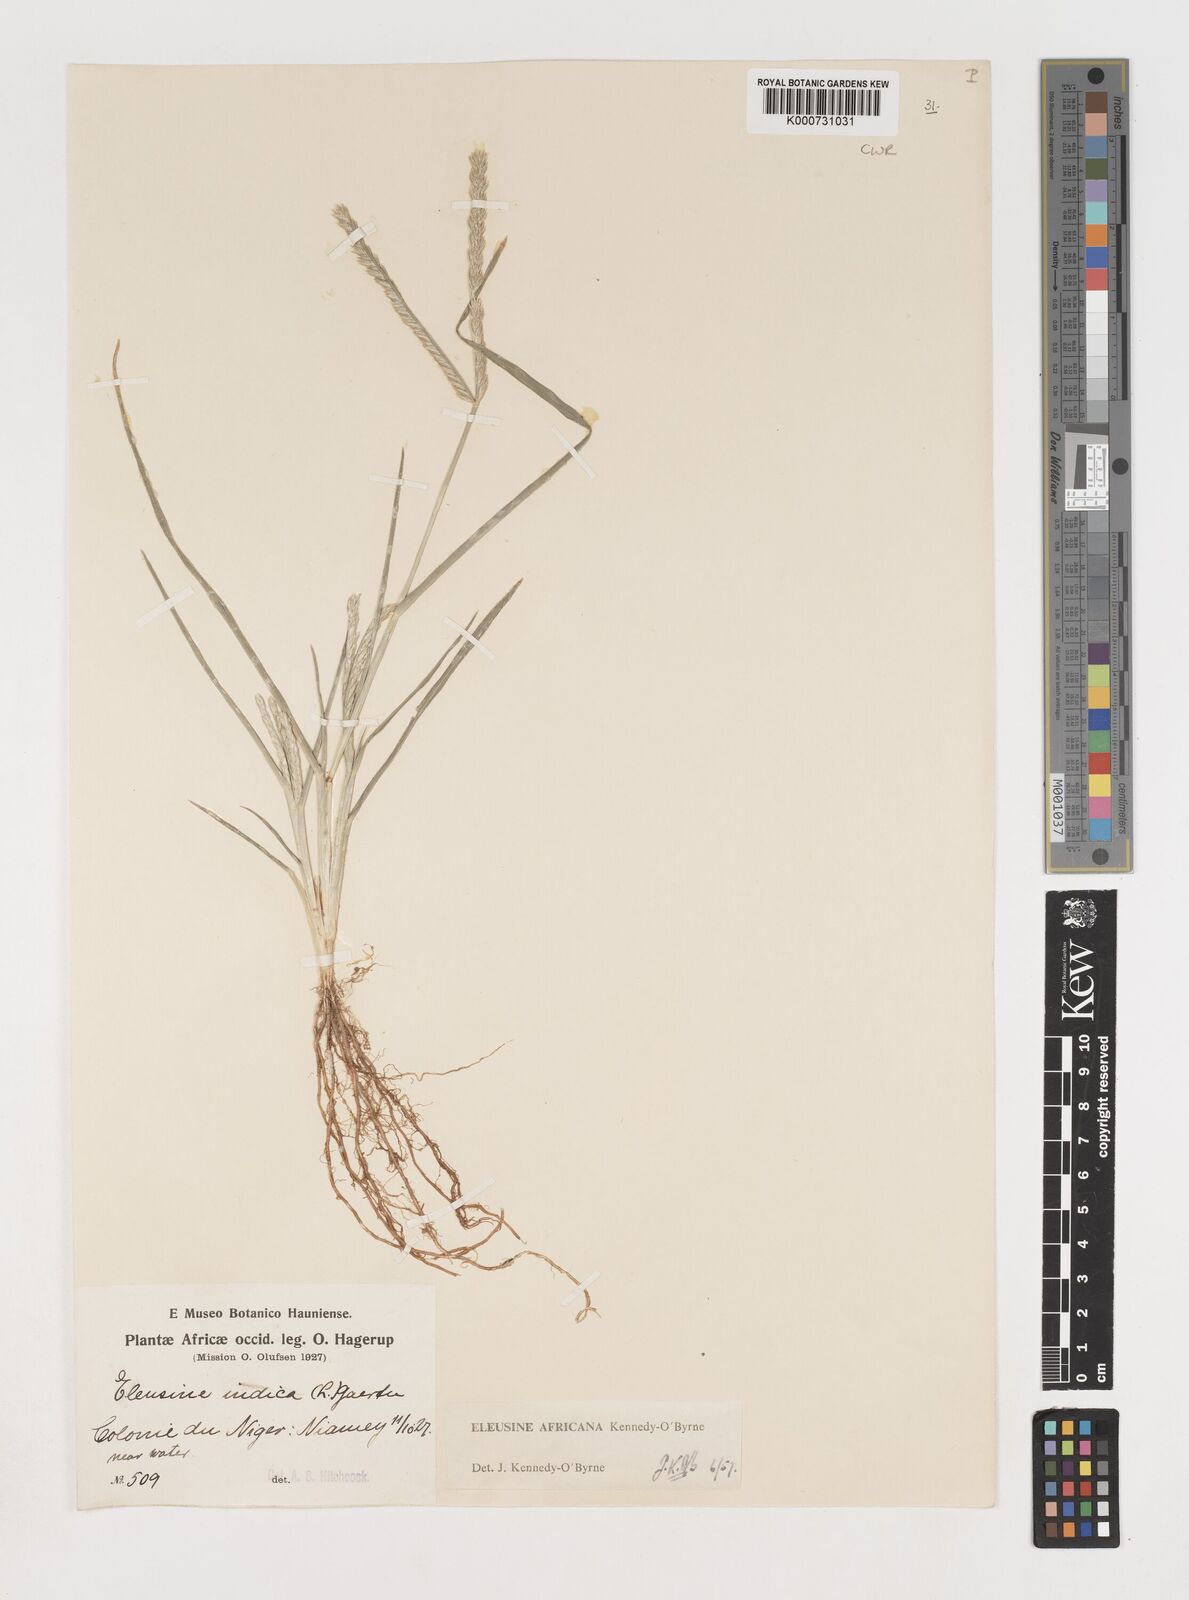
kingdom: Plantae
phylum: Tracheophyta
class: Liliopsida
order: Poales
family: Poaceae
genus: Eleusine
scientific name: Eleusine africana
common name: Wild african finger millet
